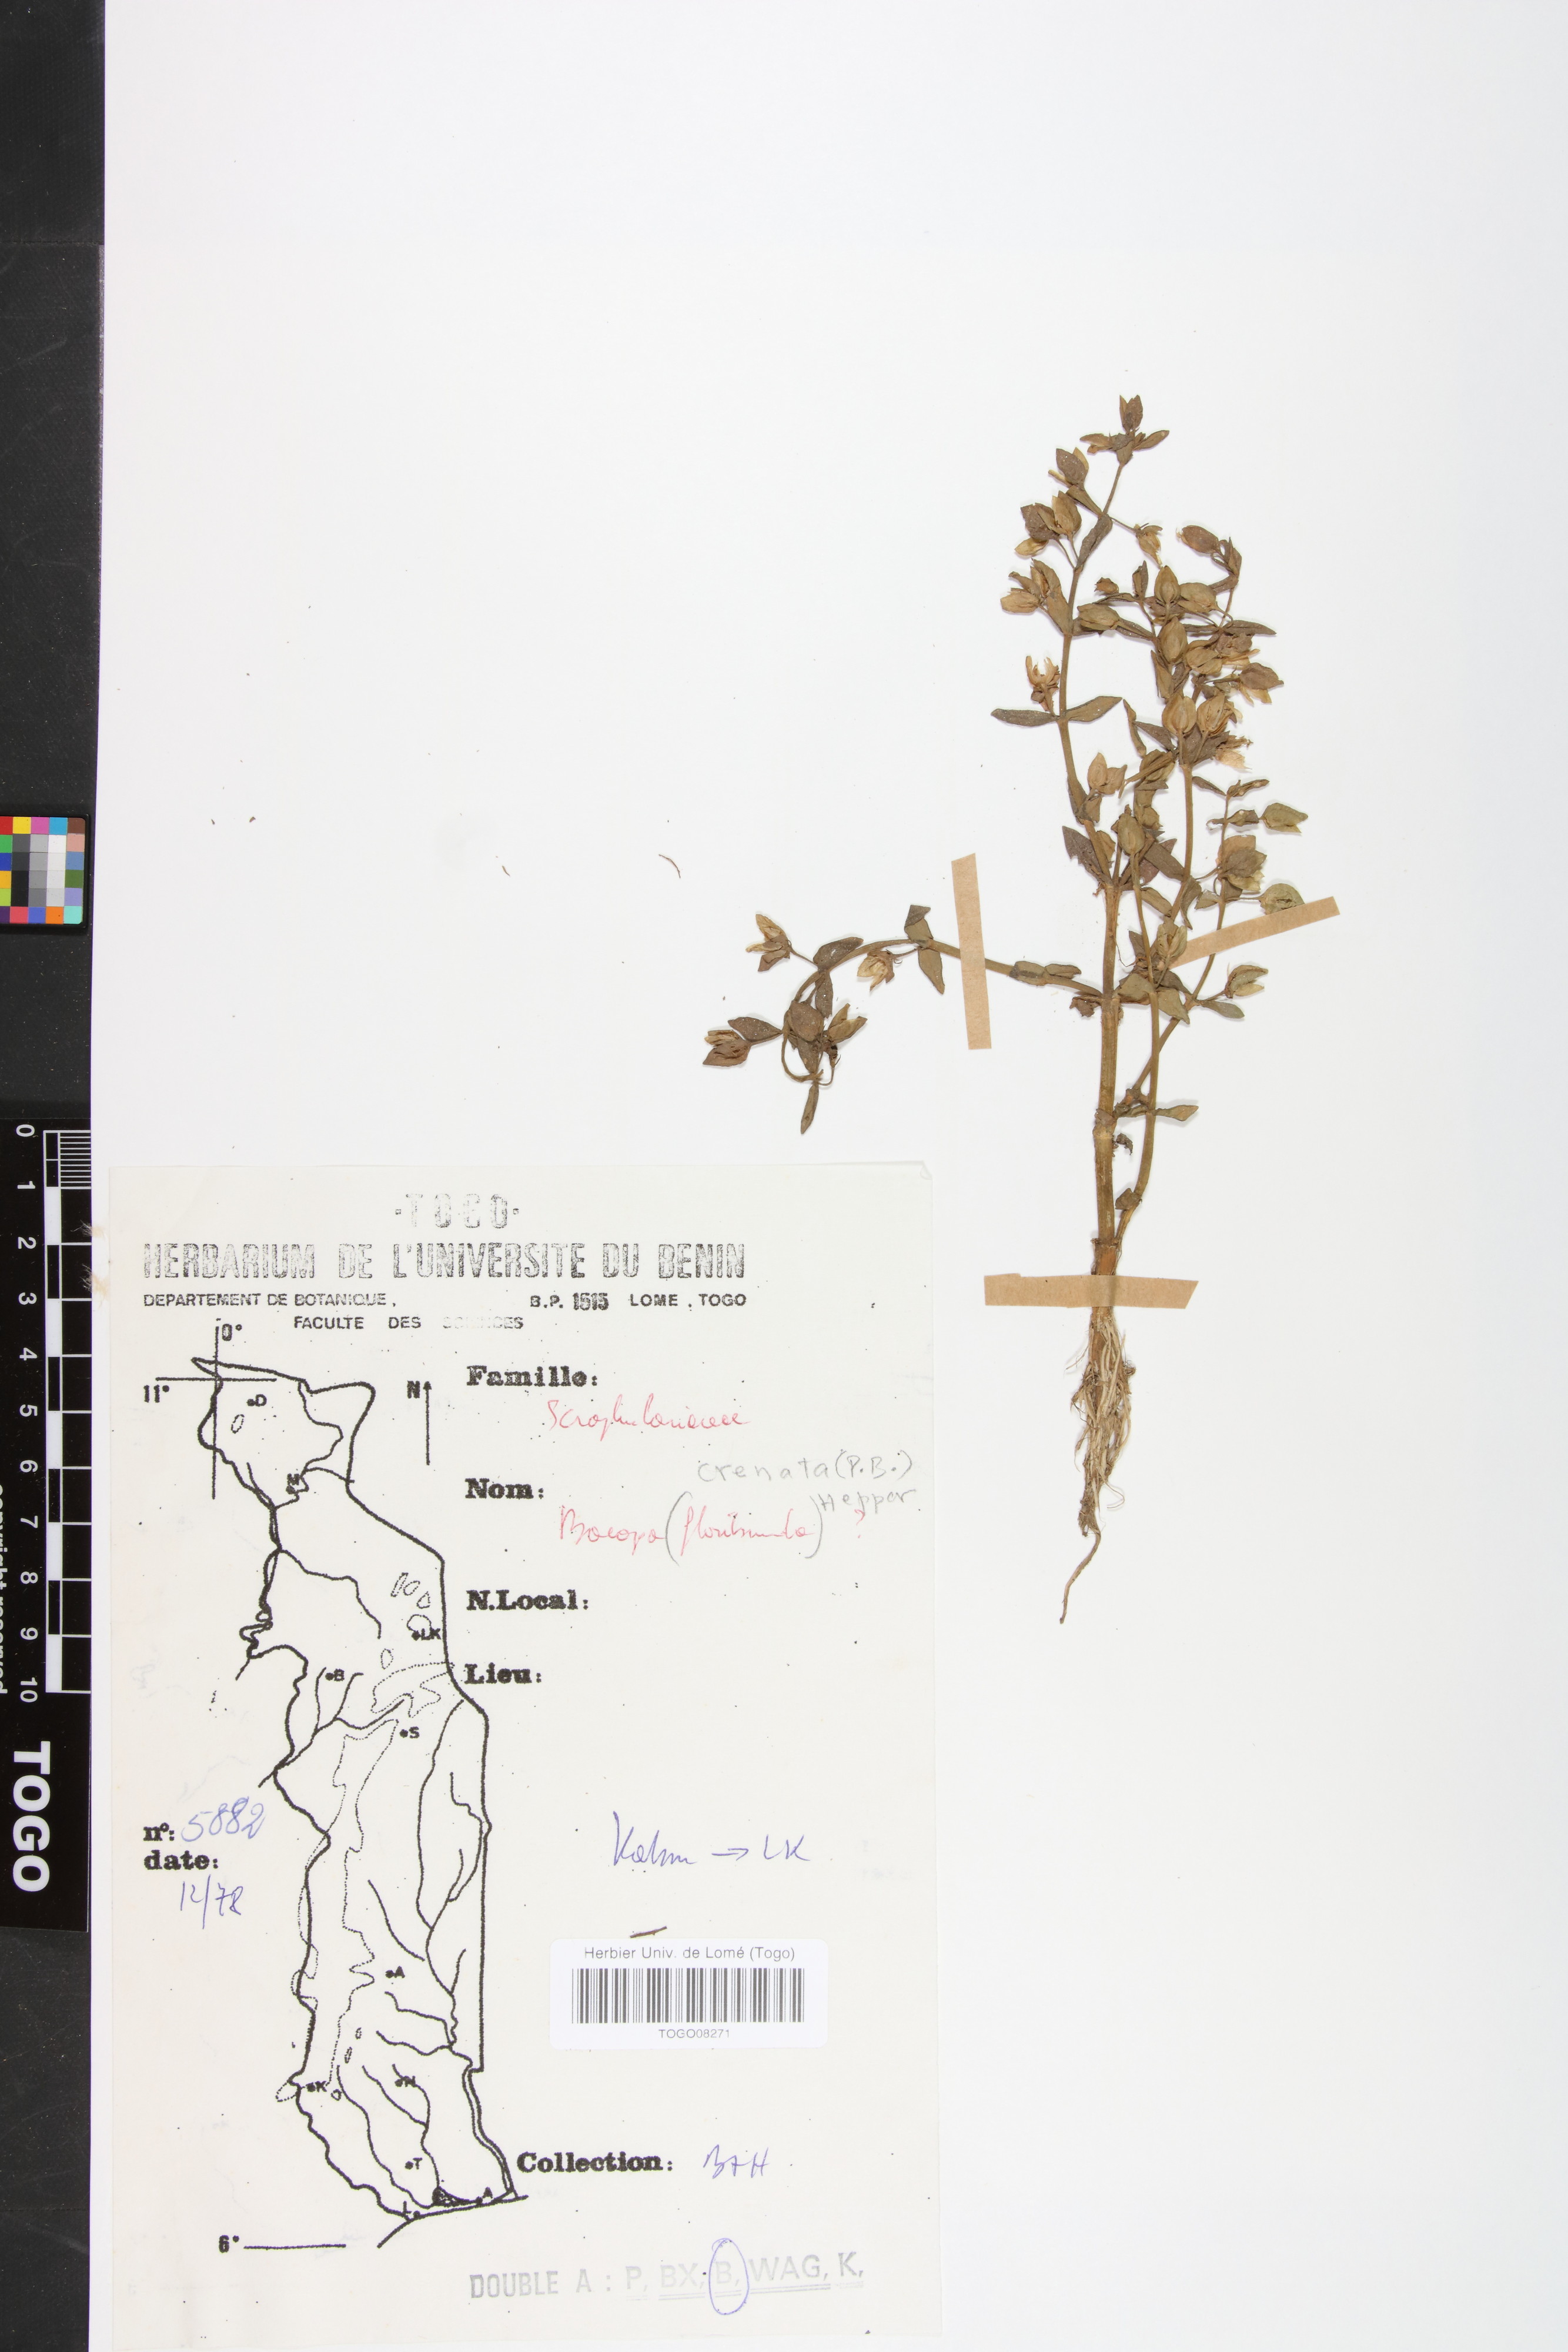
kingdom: Plantae
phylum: Tracheophyta
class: Magnoliopsida
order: Lamiales
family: Plantaginaceae
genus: Bacopa
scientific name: Bacopa crenata
